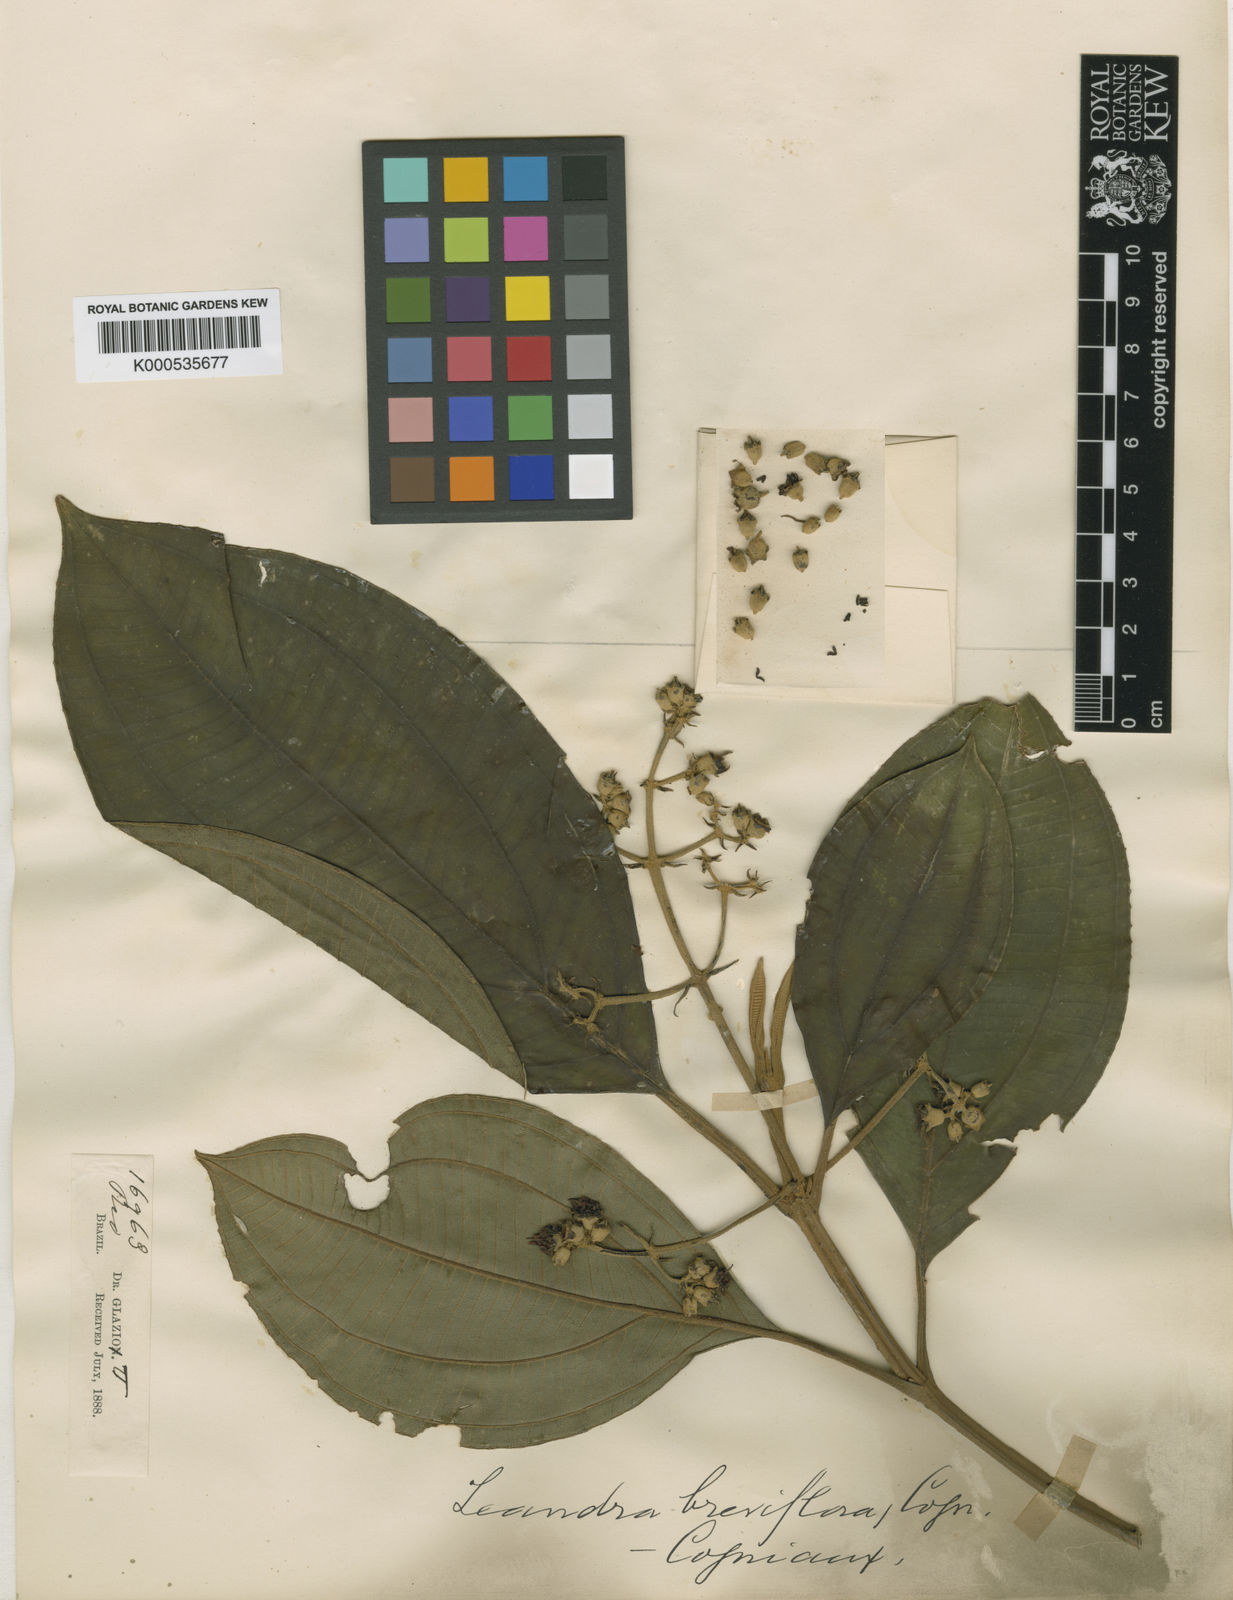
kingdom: Plantae
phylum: Tracheophyta
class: Magnoliopsida
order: Myrtales
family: Melastomataceae
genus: Miconia
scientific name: Miconia breviflora
